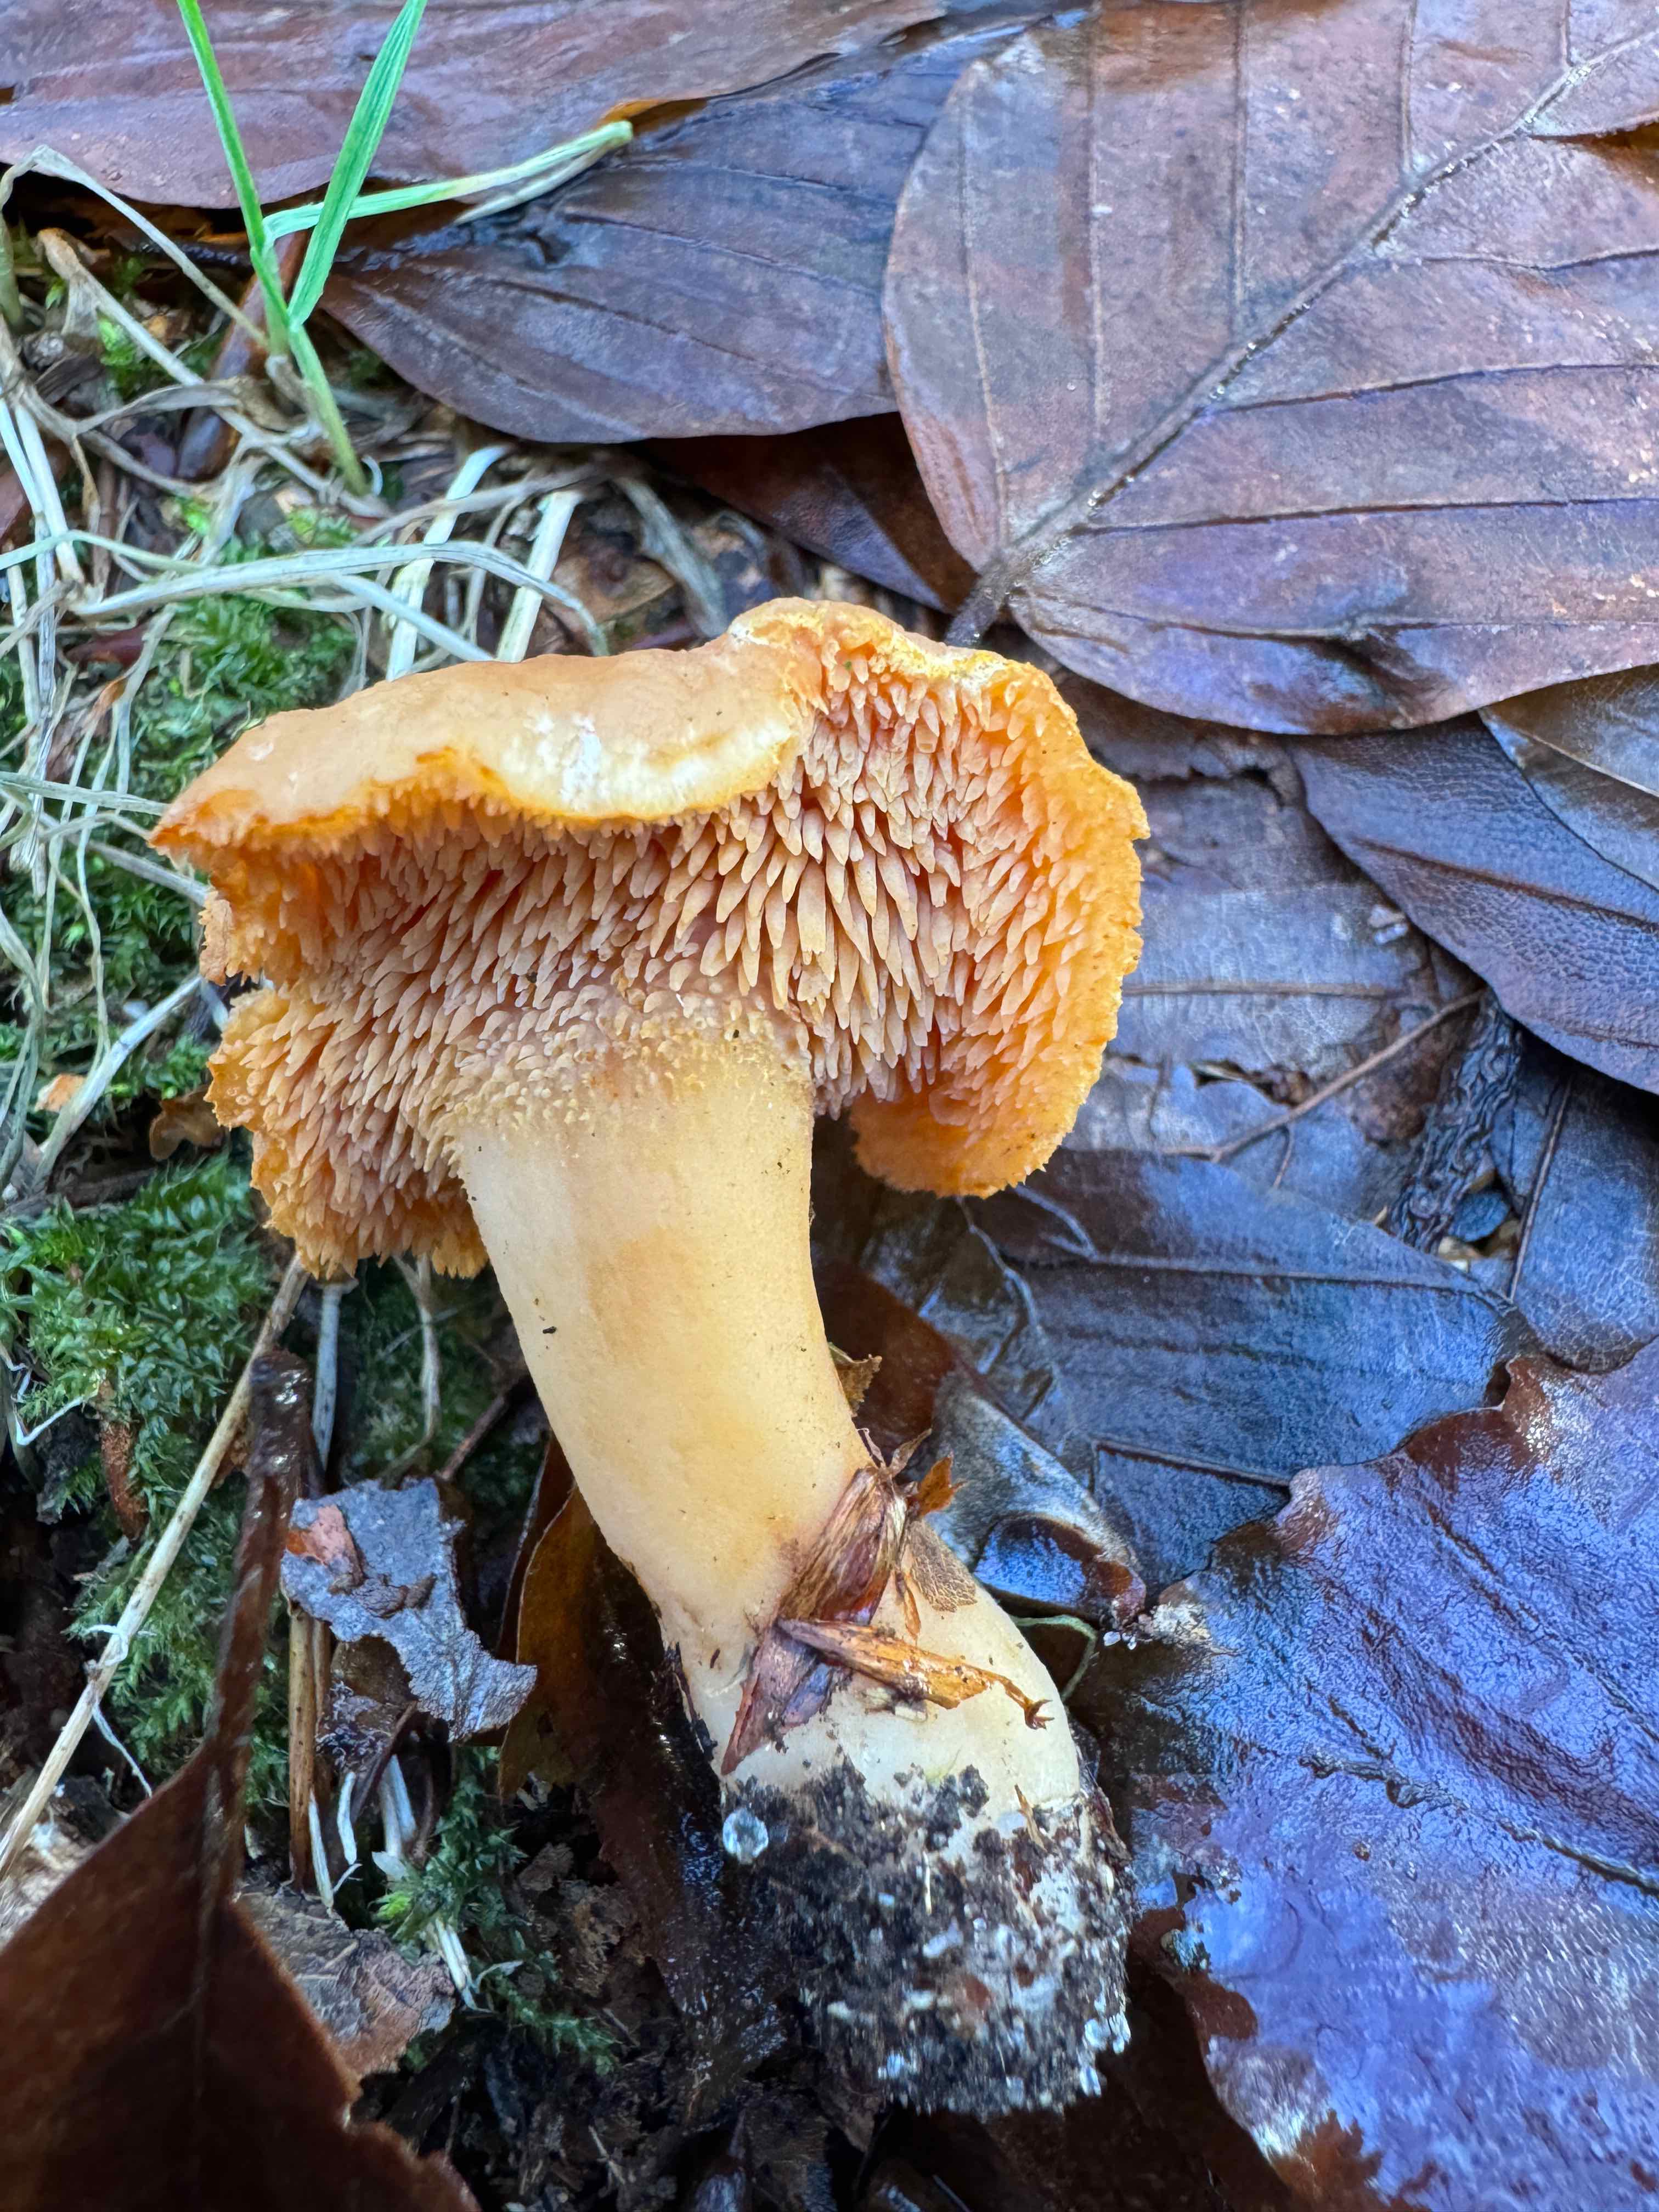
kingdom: Fungi
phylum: Basidiomycota
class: Agaricomycetes
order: Cantharellales
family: Hydnaceae
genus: Hydnum
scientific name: Hydnum umbilicatum
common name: navle-pigsvamp
